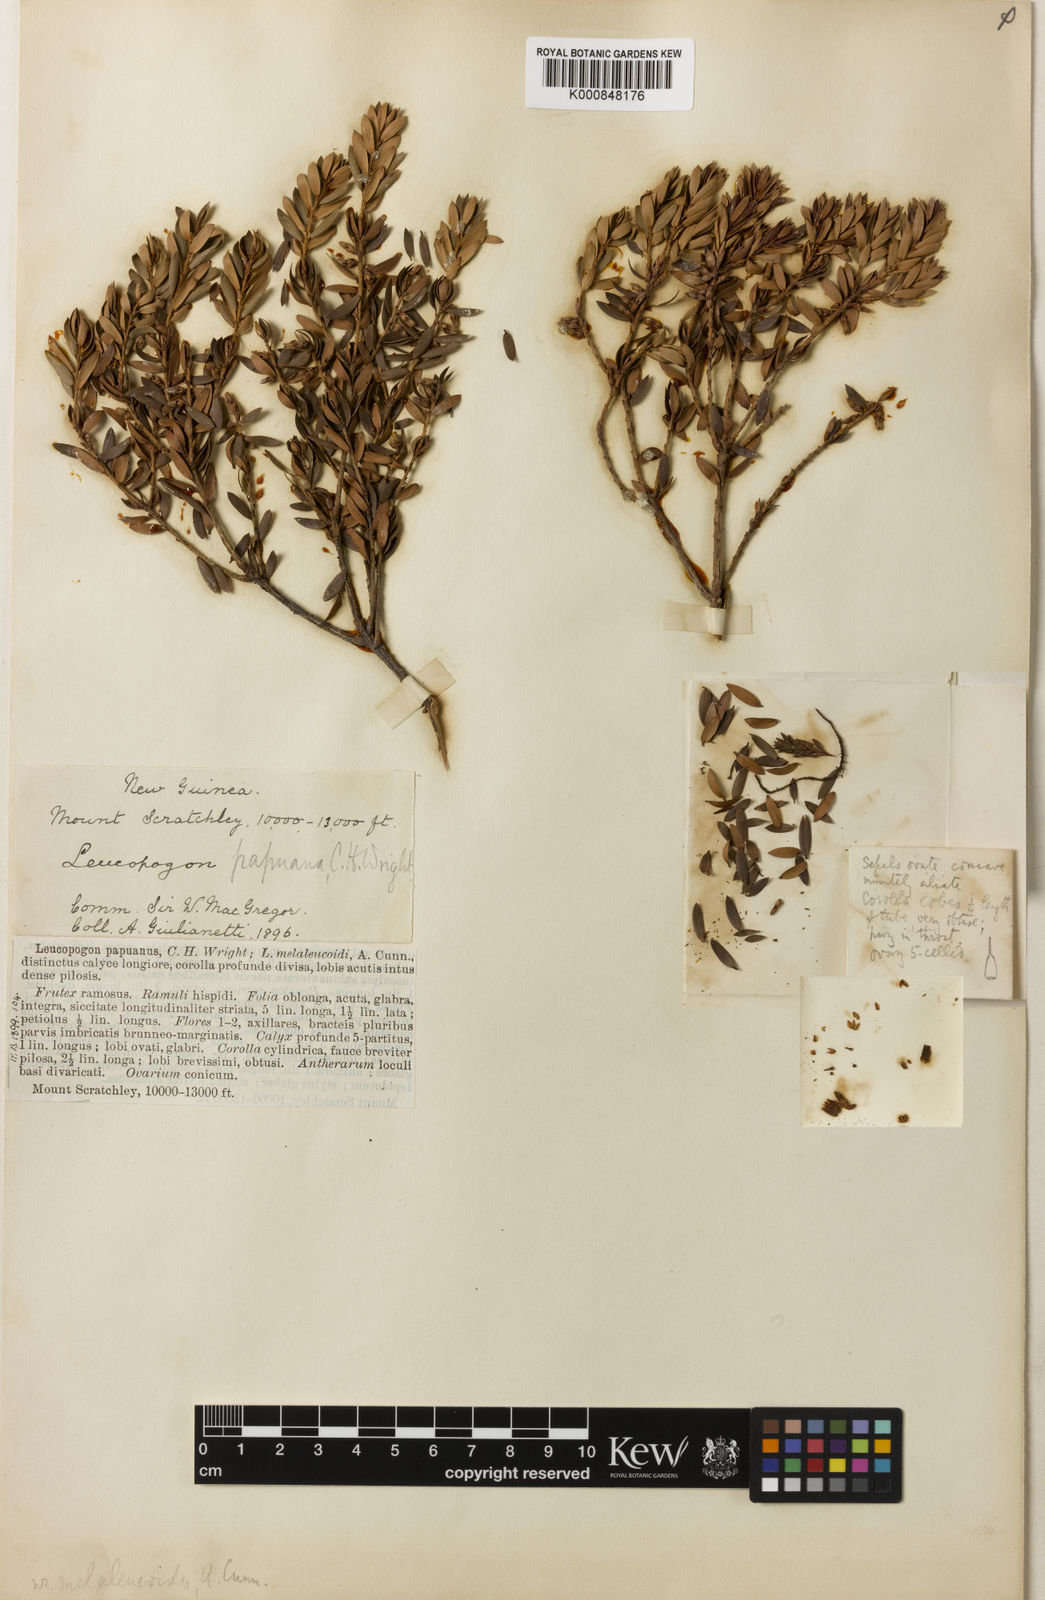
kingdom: Plantae
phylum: Tracheophyta
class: Magnoliopsida
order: Ericales
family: Ericaceae
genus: Trochocarpa
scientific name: Trochocarpa papuana
